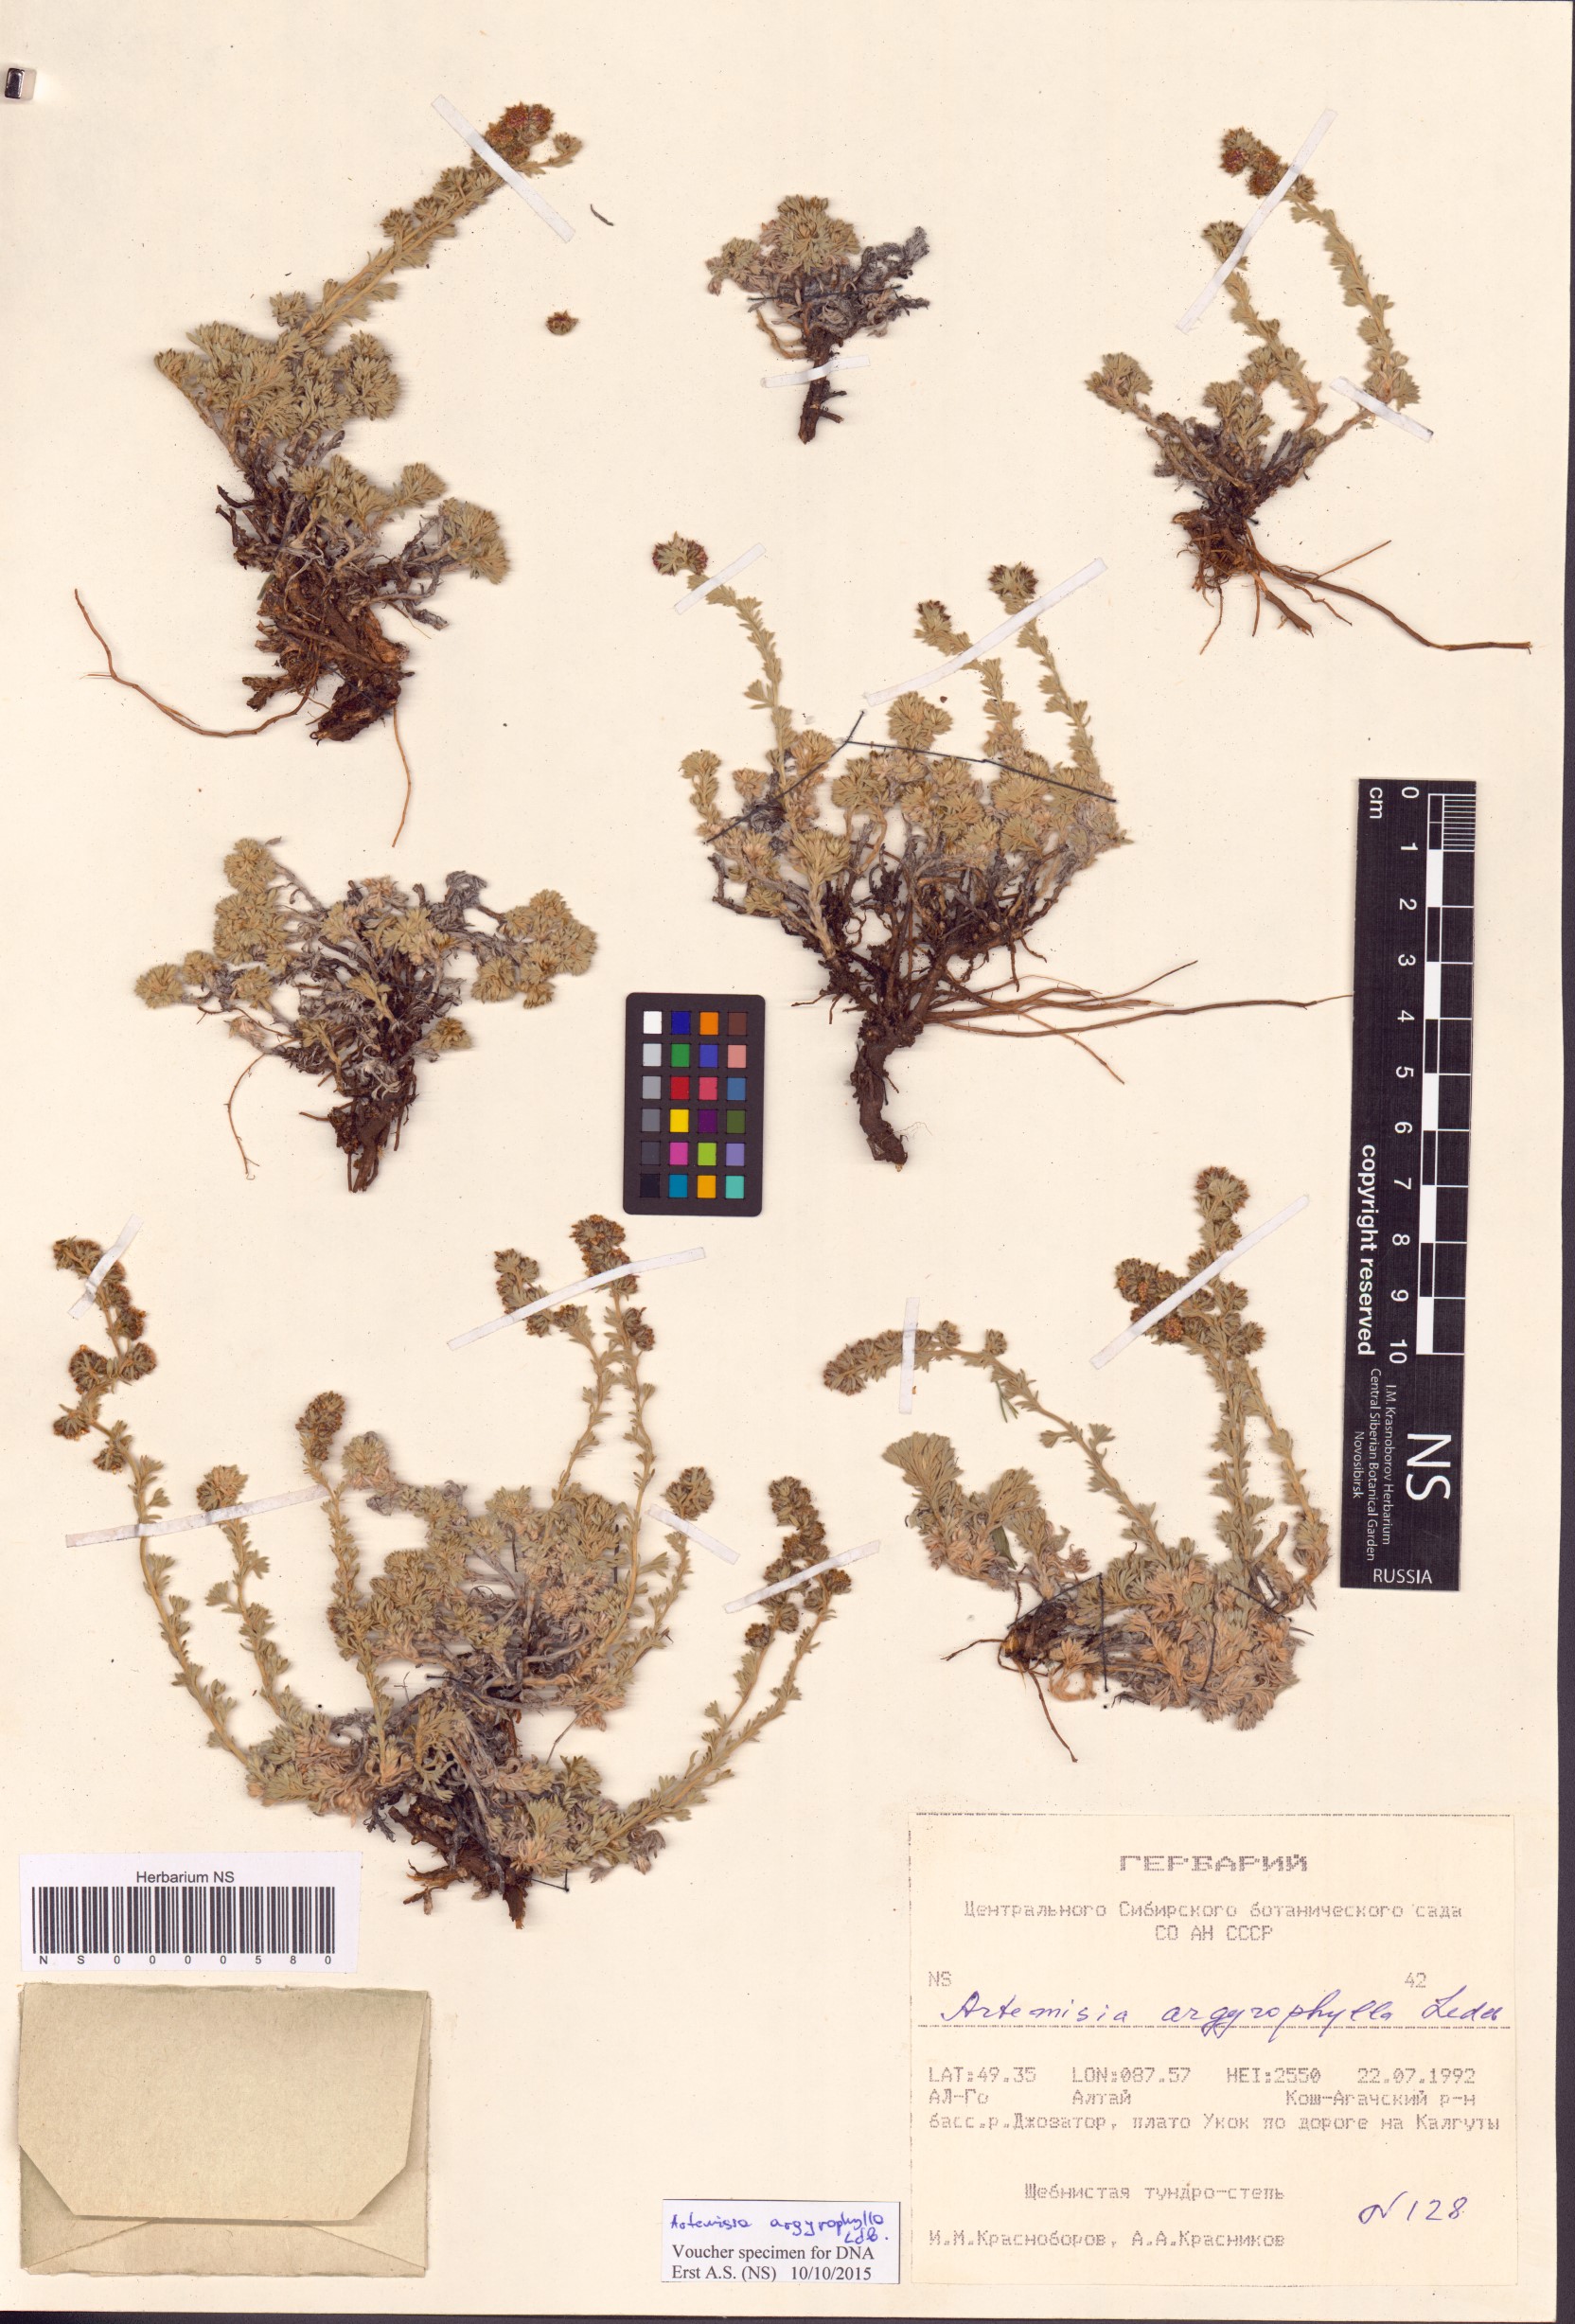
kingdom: Plantae
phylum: Tracheophyta
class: Magnoliopsida
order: Asterales
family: Asteraceae
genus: Artemisia
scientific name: Artemisia argyrophylla
